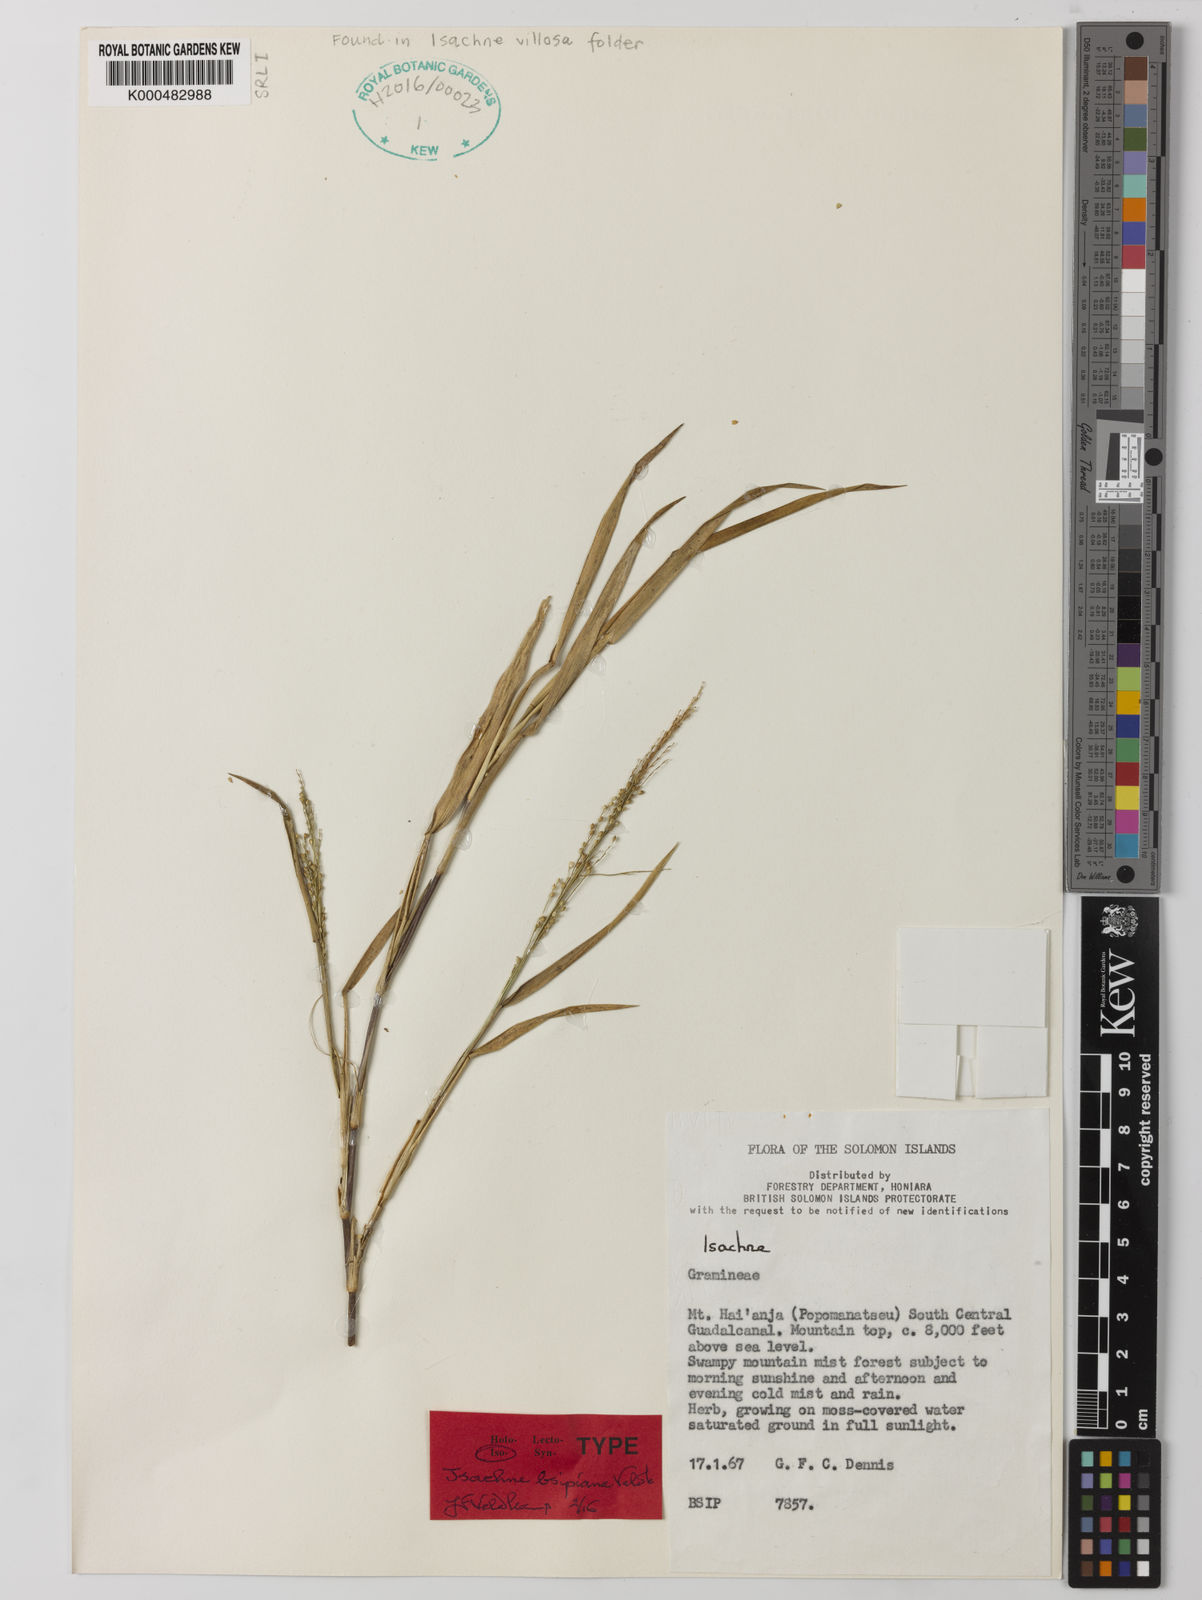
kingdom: Plantae
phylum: Tracheophyta
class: Liliopsida
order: Poales
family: Poaceae
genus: Isachne
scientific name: Isachne bsipiana
